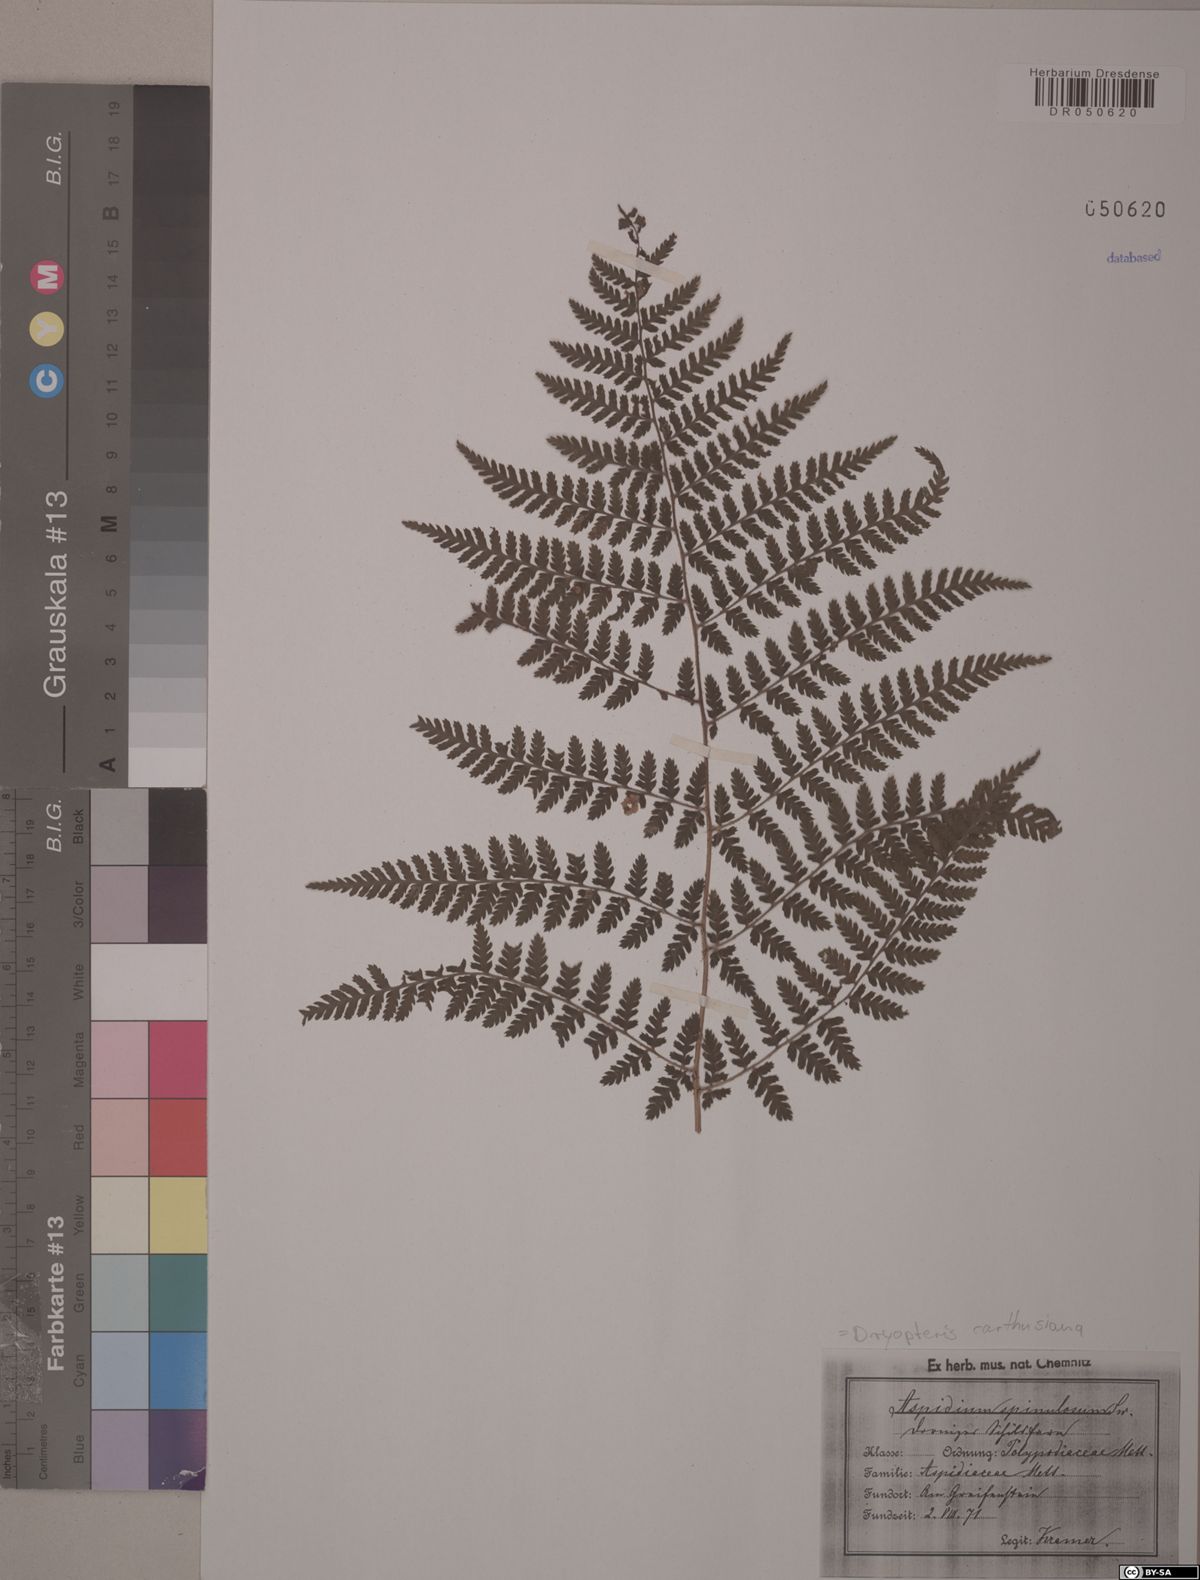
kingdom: Plantae
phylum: Tracheophyta
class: Polypodiopsida
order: Polypodiales
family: Dryopteridaceae
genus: Dryopteris
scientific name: Dryopteris carthusiana
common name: Narrow buckler-fern
